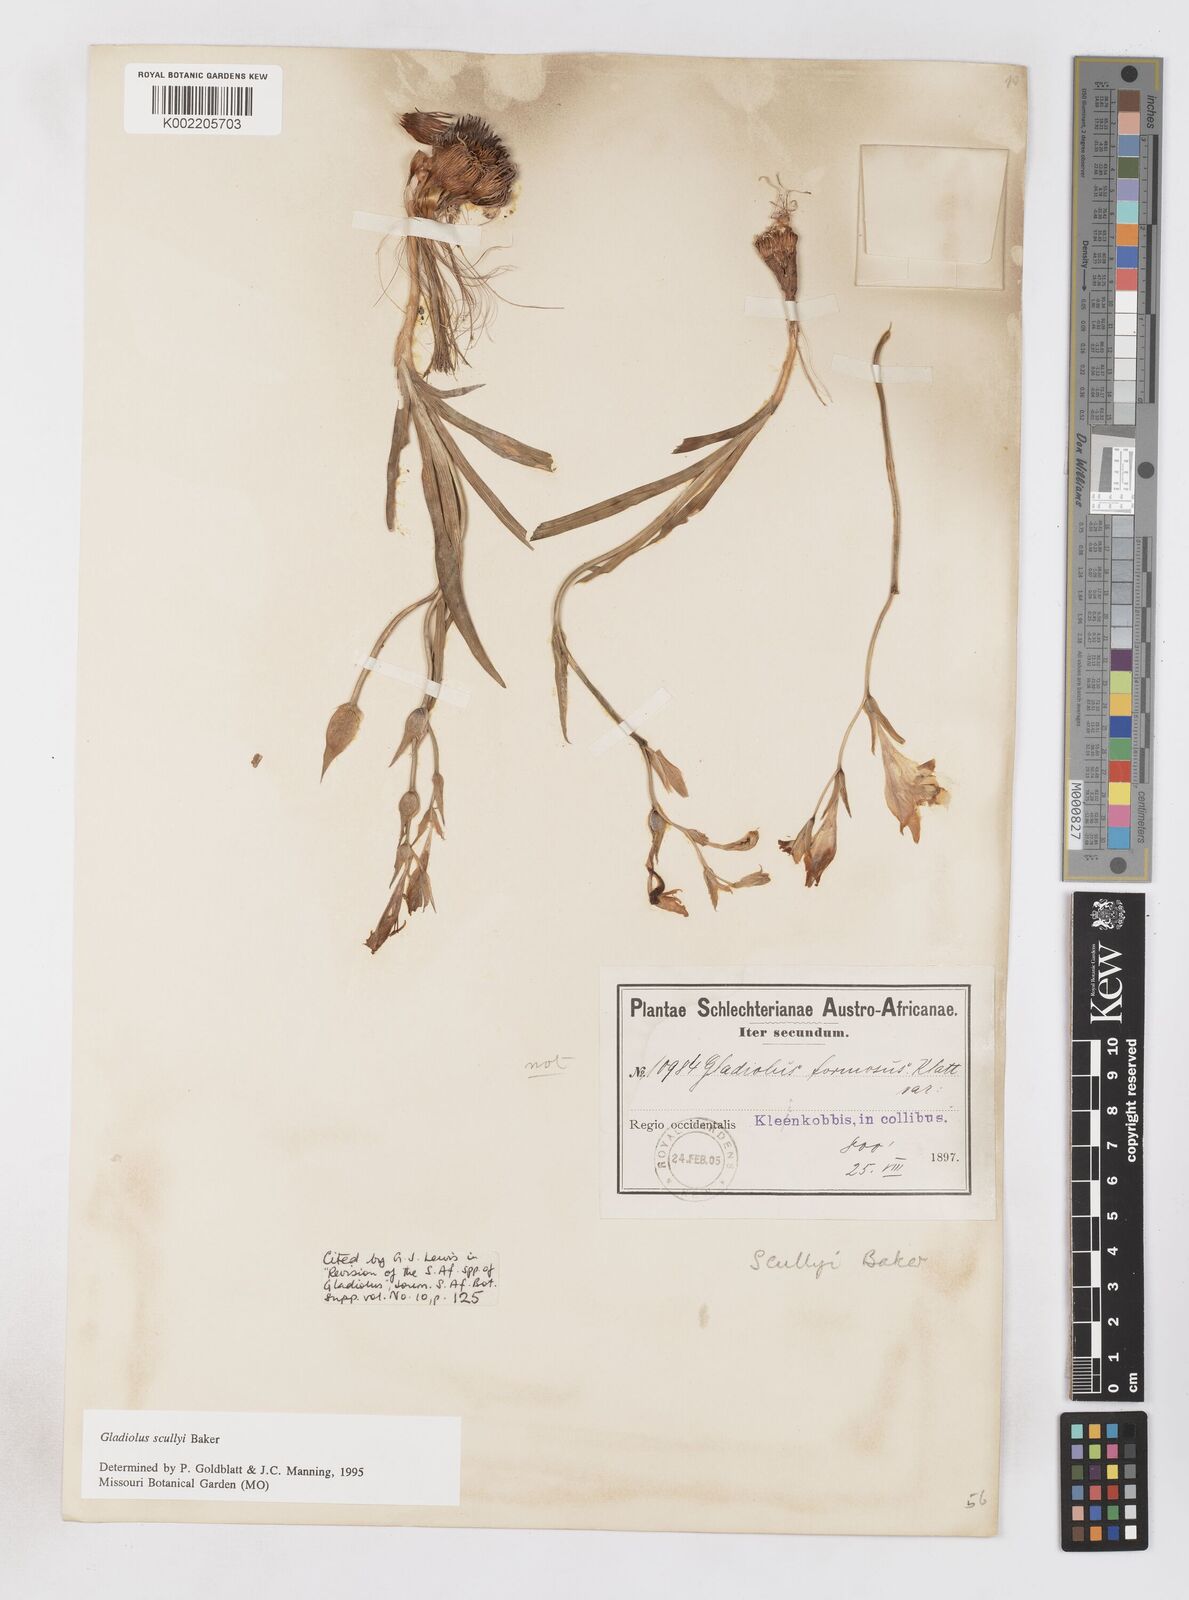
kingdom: Plantae
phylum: Tracheophyta
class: Liliopsida
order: Asparagales
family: Iridaceae
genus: Gladiolus
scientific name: Gladiolus scullyi
